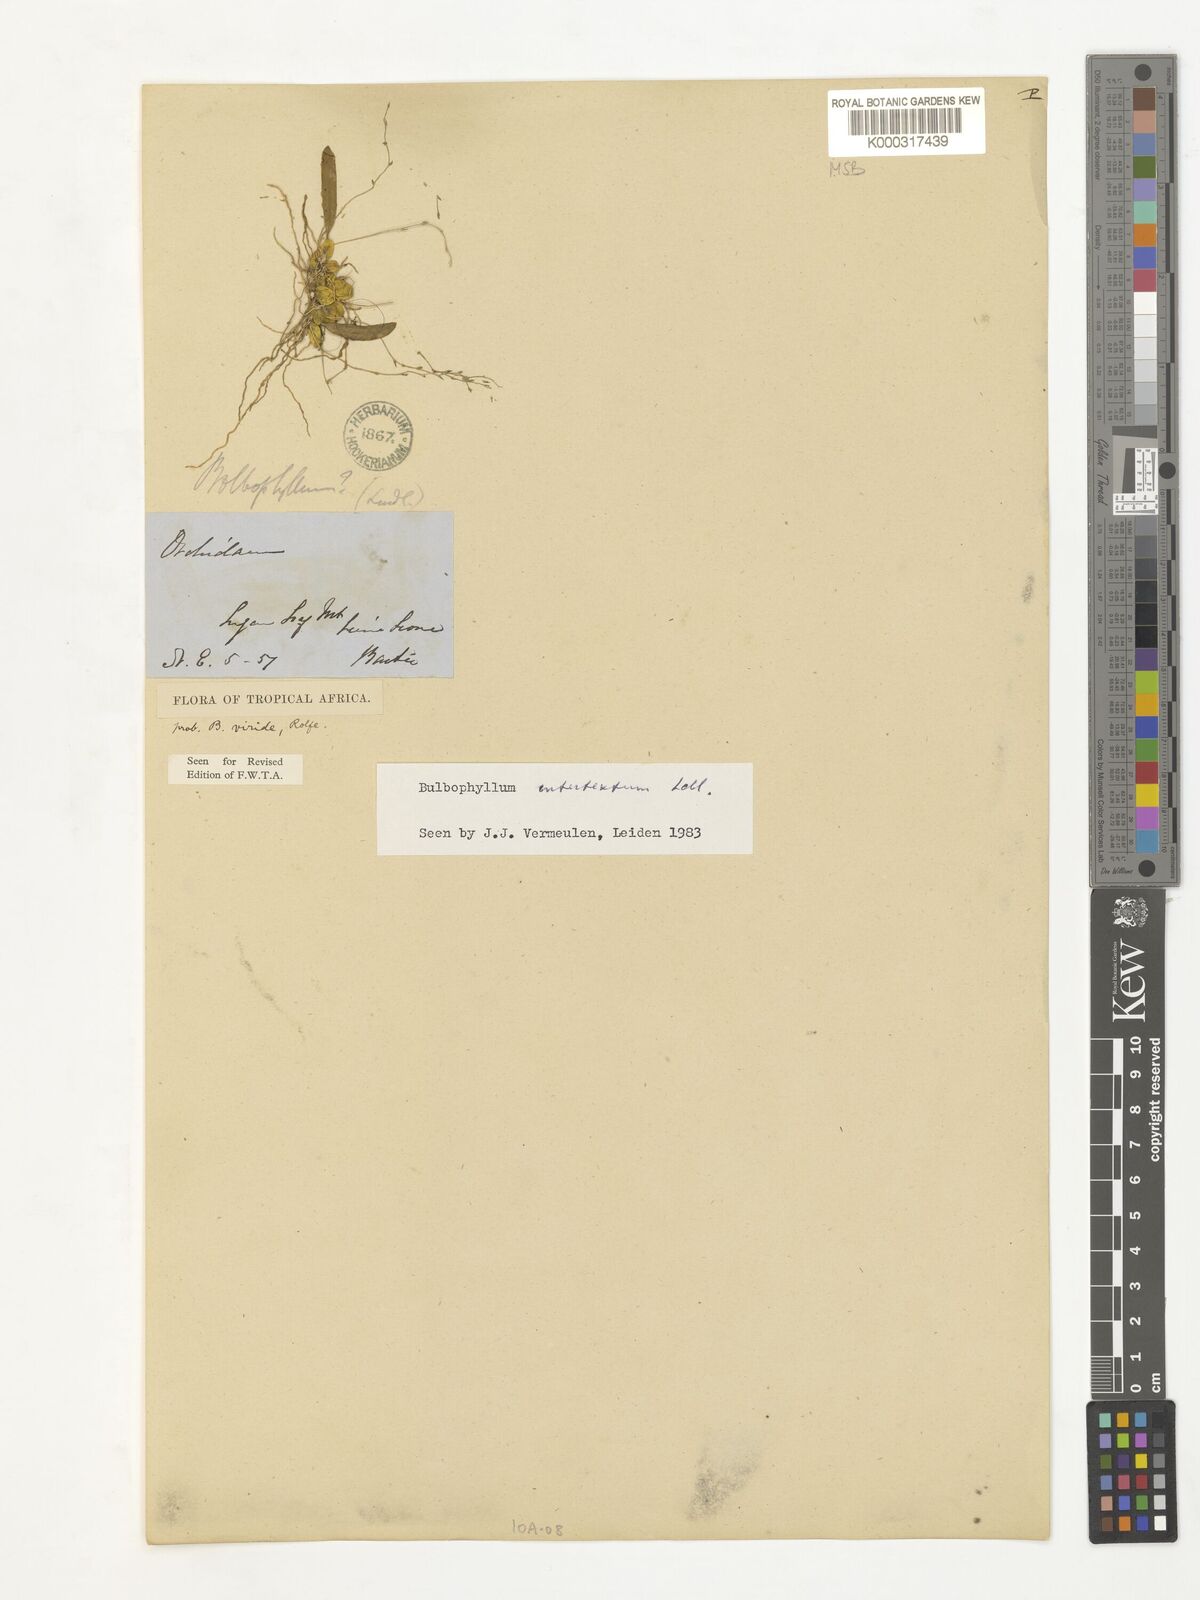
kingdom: Plantae
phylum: Tracheophyta
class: Liliopsida
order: Asparagales
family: Orchidaceae
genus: Bulbophyllum
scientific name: Bulbophyllum intertextum
